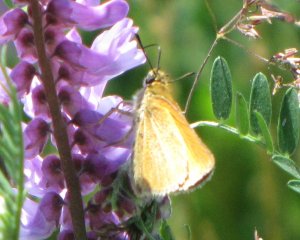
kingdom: Animalia
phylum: Arthropoda
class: Insecta
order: Lepidoptera
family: Hesperiidae
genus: Thymelicus
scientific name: Thymelicus lineola
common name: European Skipper
